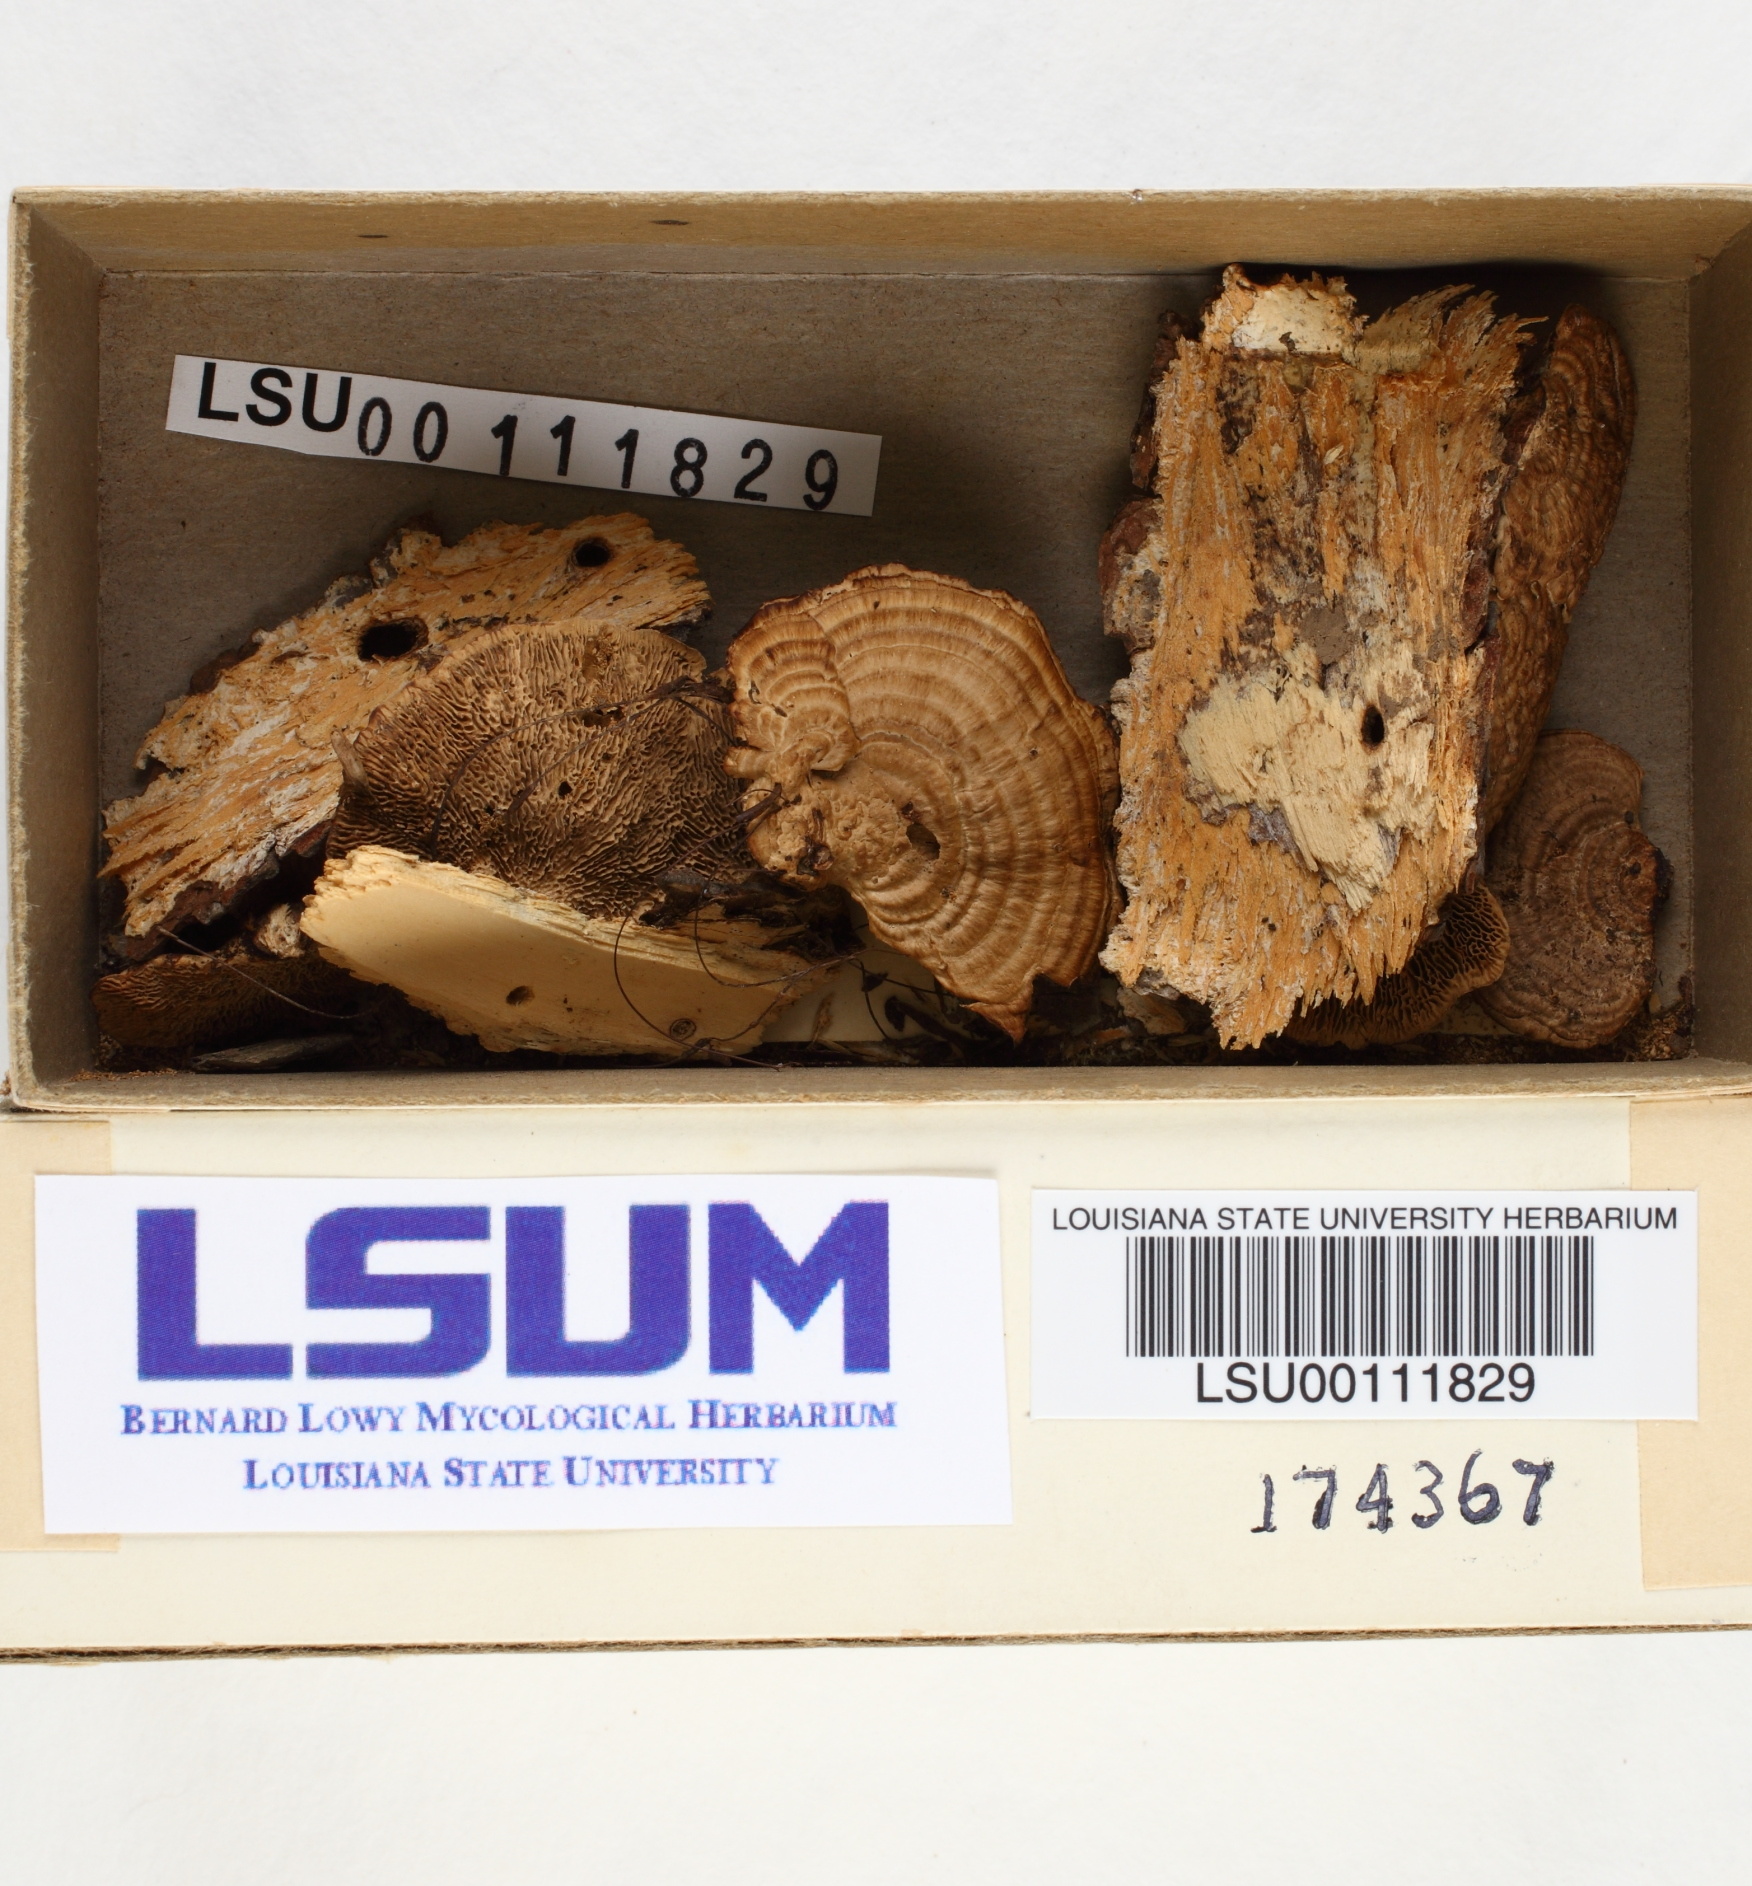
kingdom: Fungi
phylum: Basidiomycota
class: Agaricomycetes
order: Gloeophyllales
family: Gloeophyllaceae
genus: Gloeophyllum
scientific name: Gloeophyllum striatum
